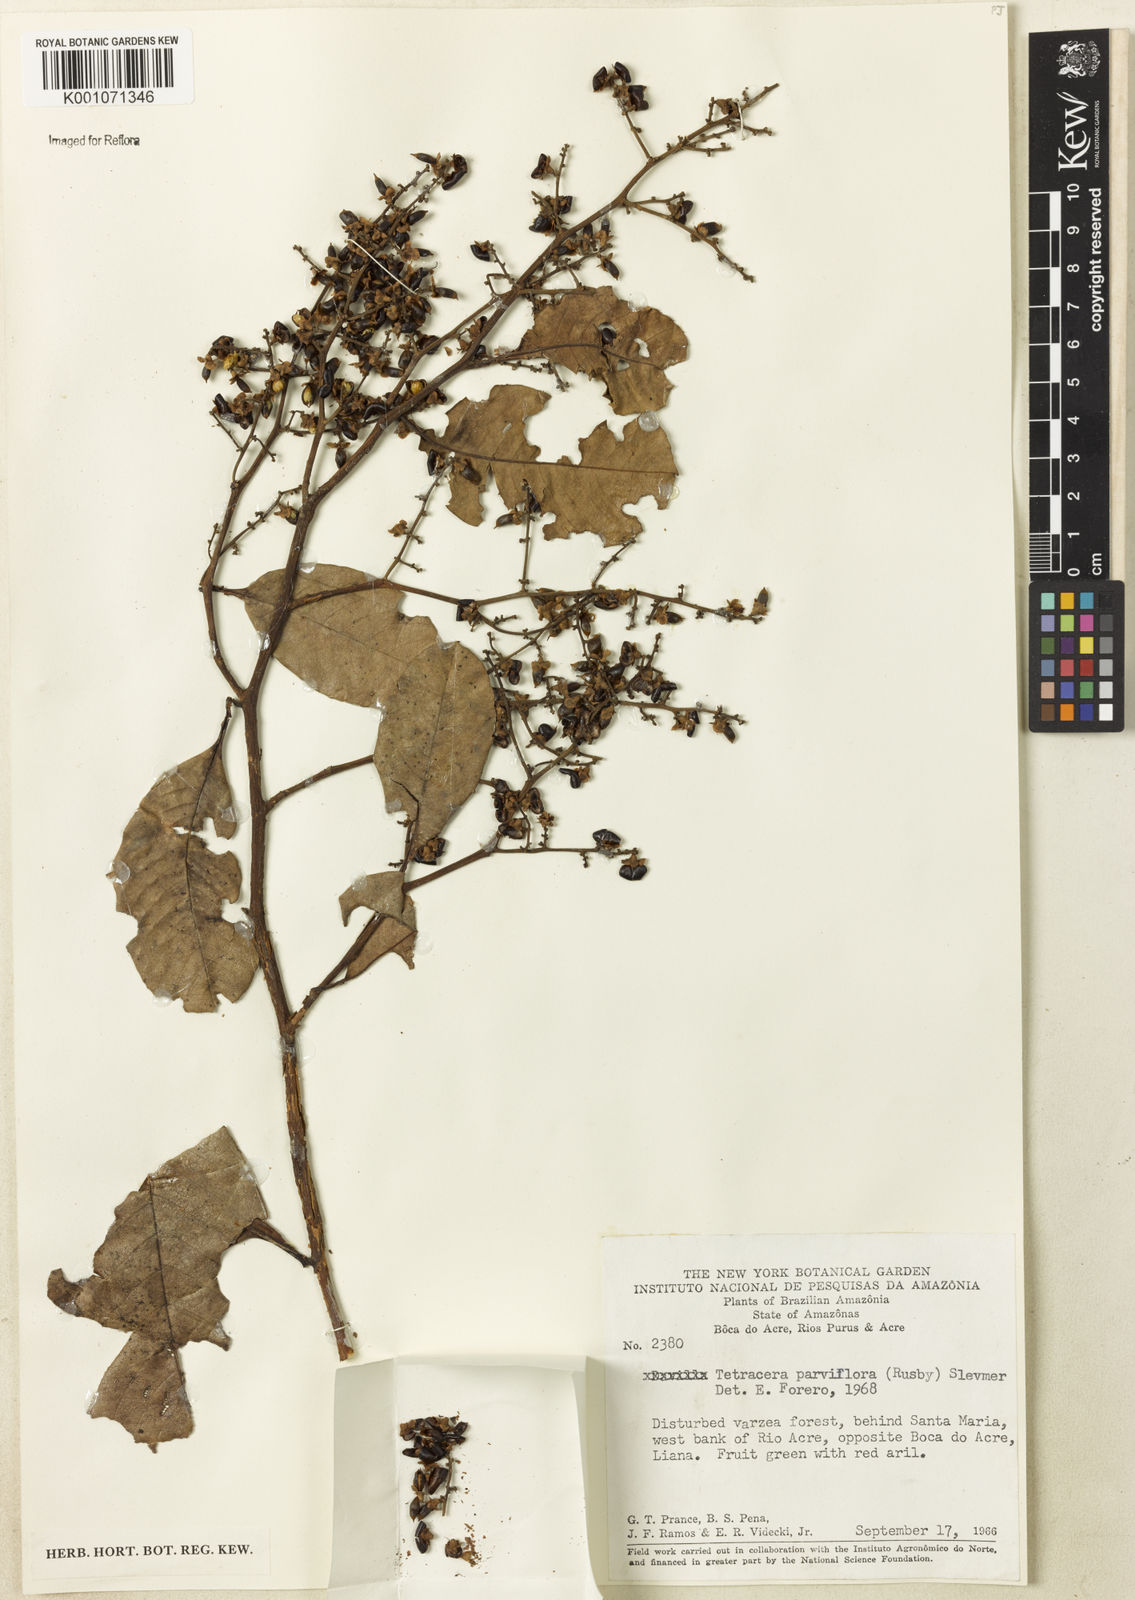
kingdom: Plantae
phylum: Tracheophyta
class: Magnoliopsida
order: Dilleniales
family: Dilleniaceae
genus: Tetracera
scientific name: Tetracera parviflora
